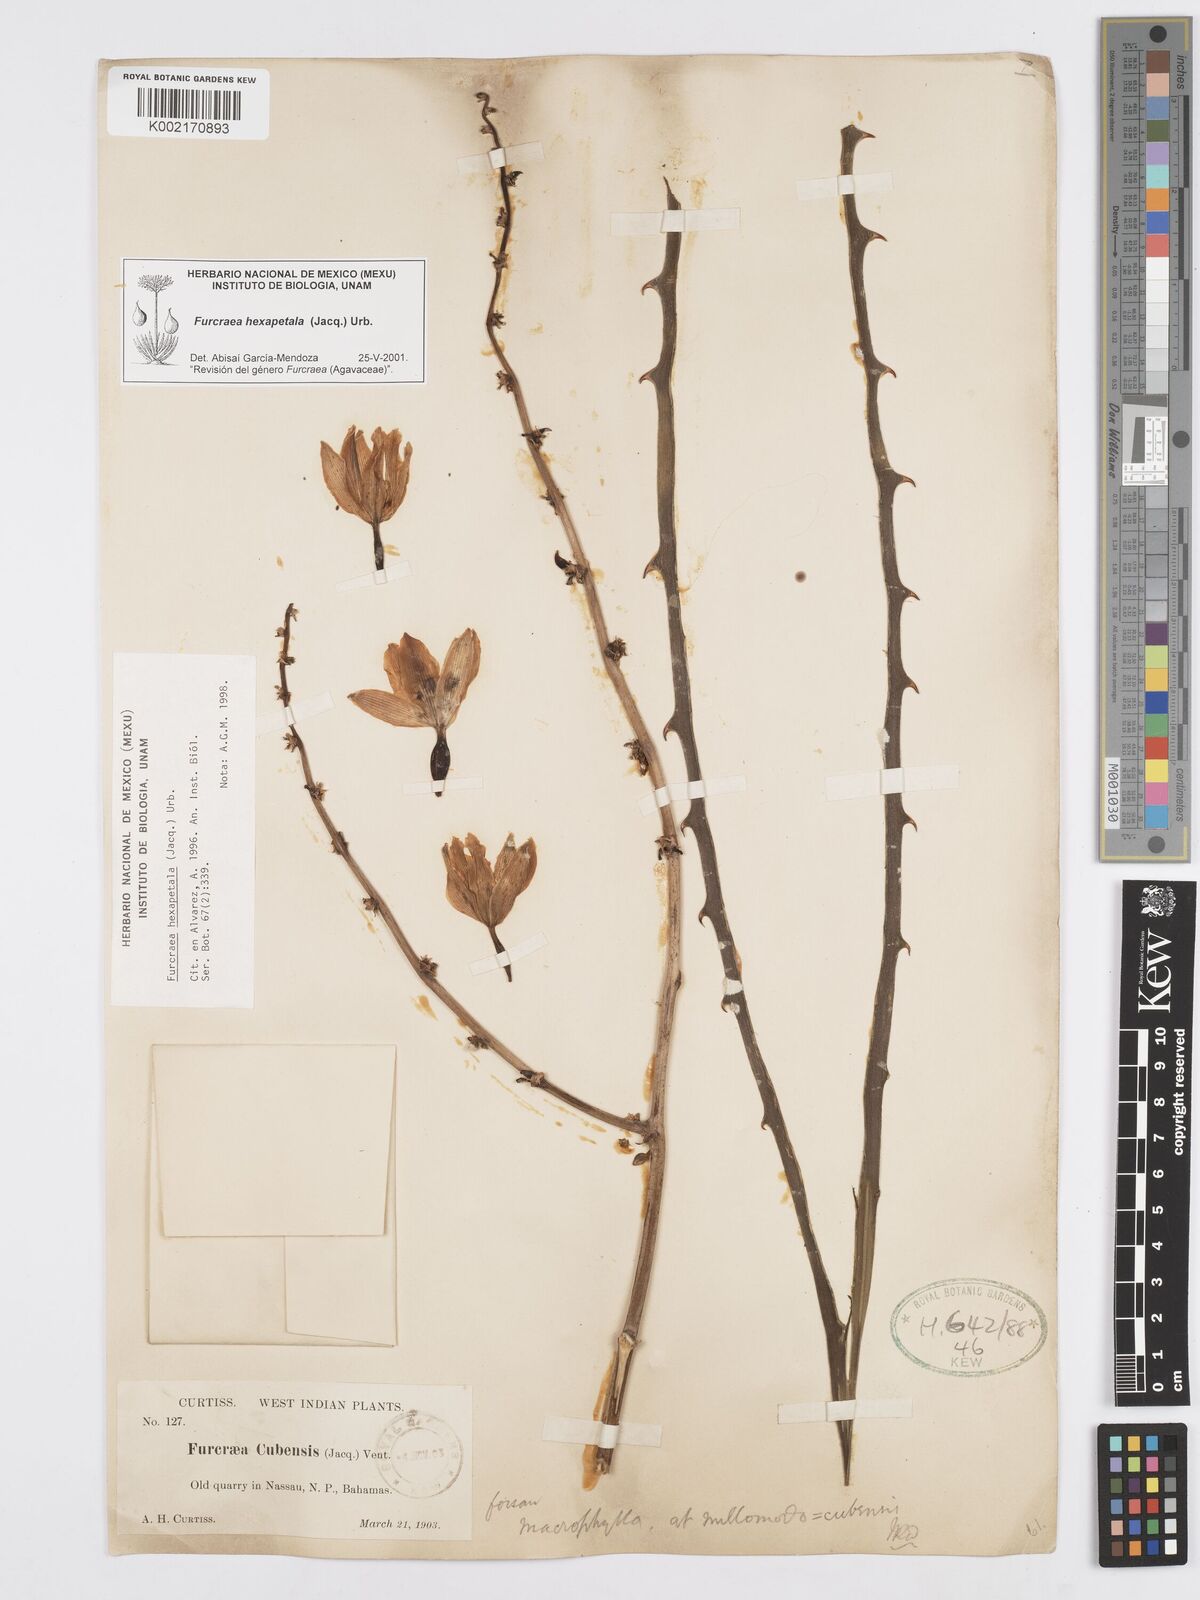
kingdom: Plantae
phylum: Tracheophyta
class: Liliopsida
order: Asparagales
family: Asparagaceae
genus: Furcraea
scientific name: Furcraea hexapetala
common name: Cuban-hemp
